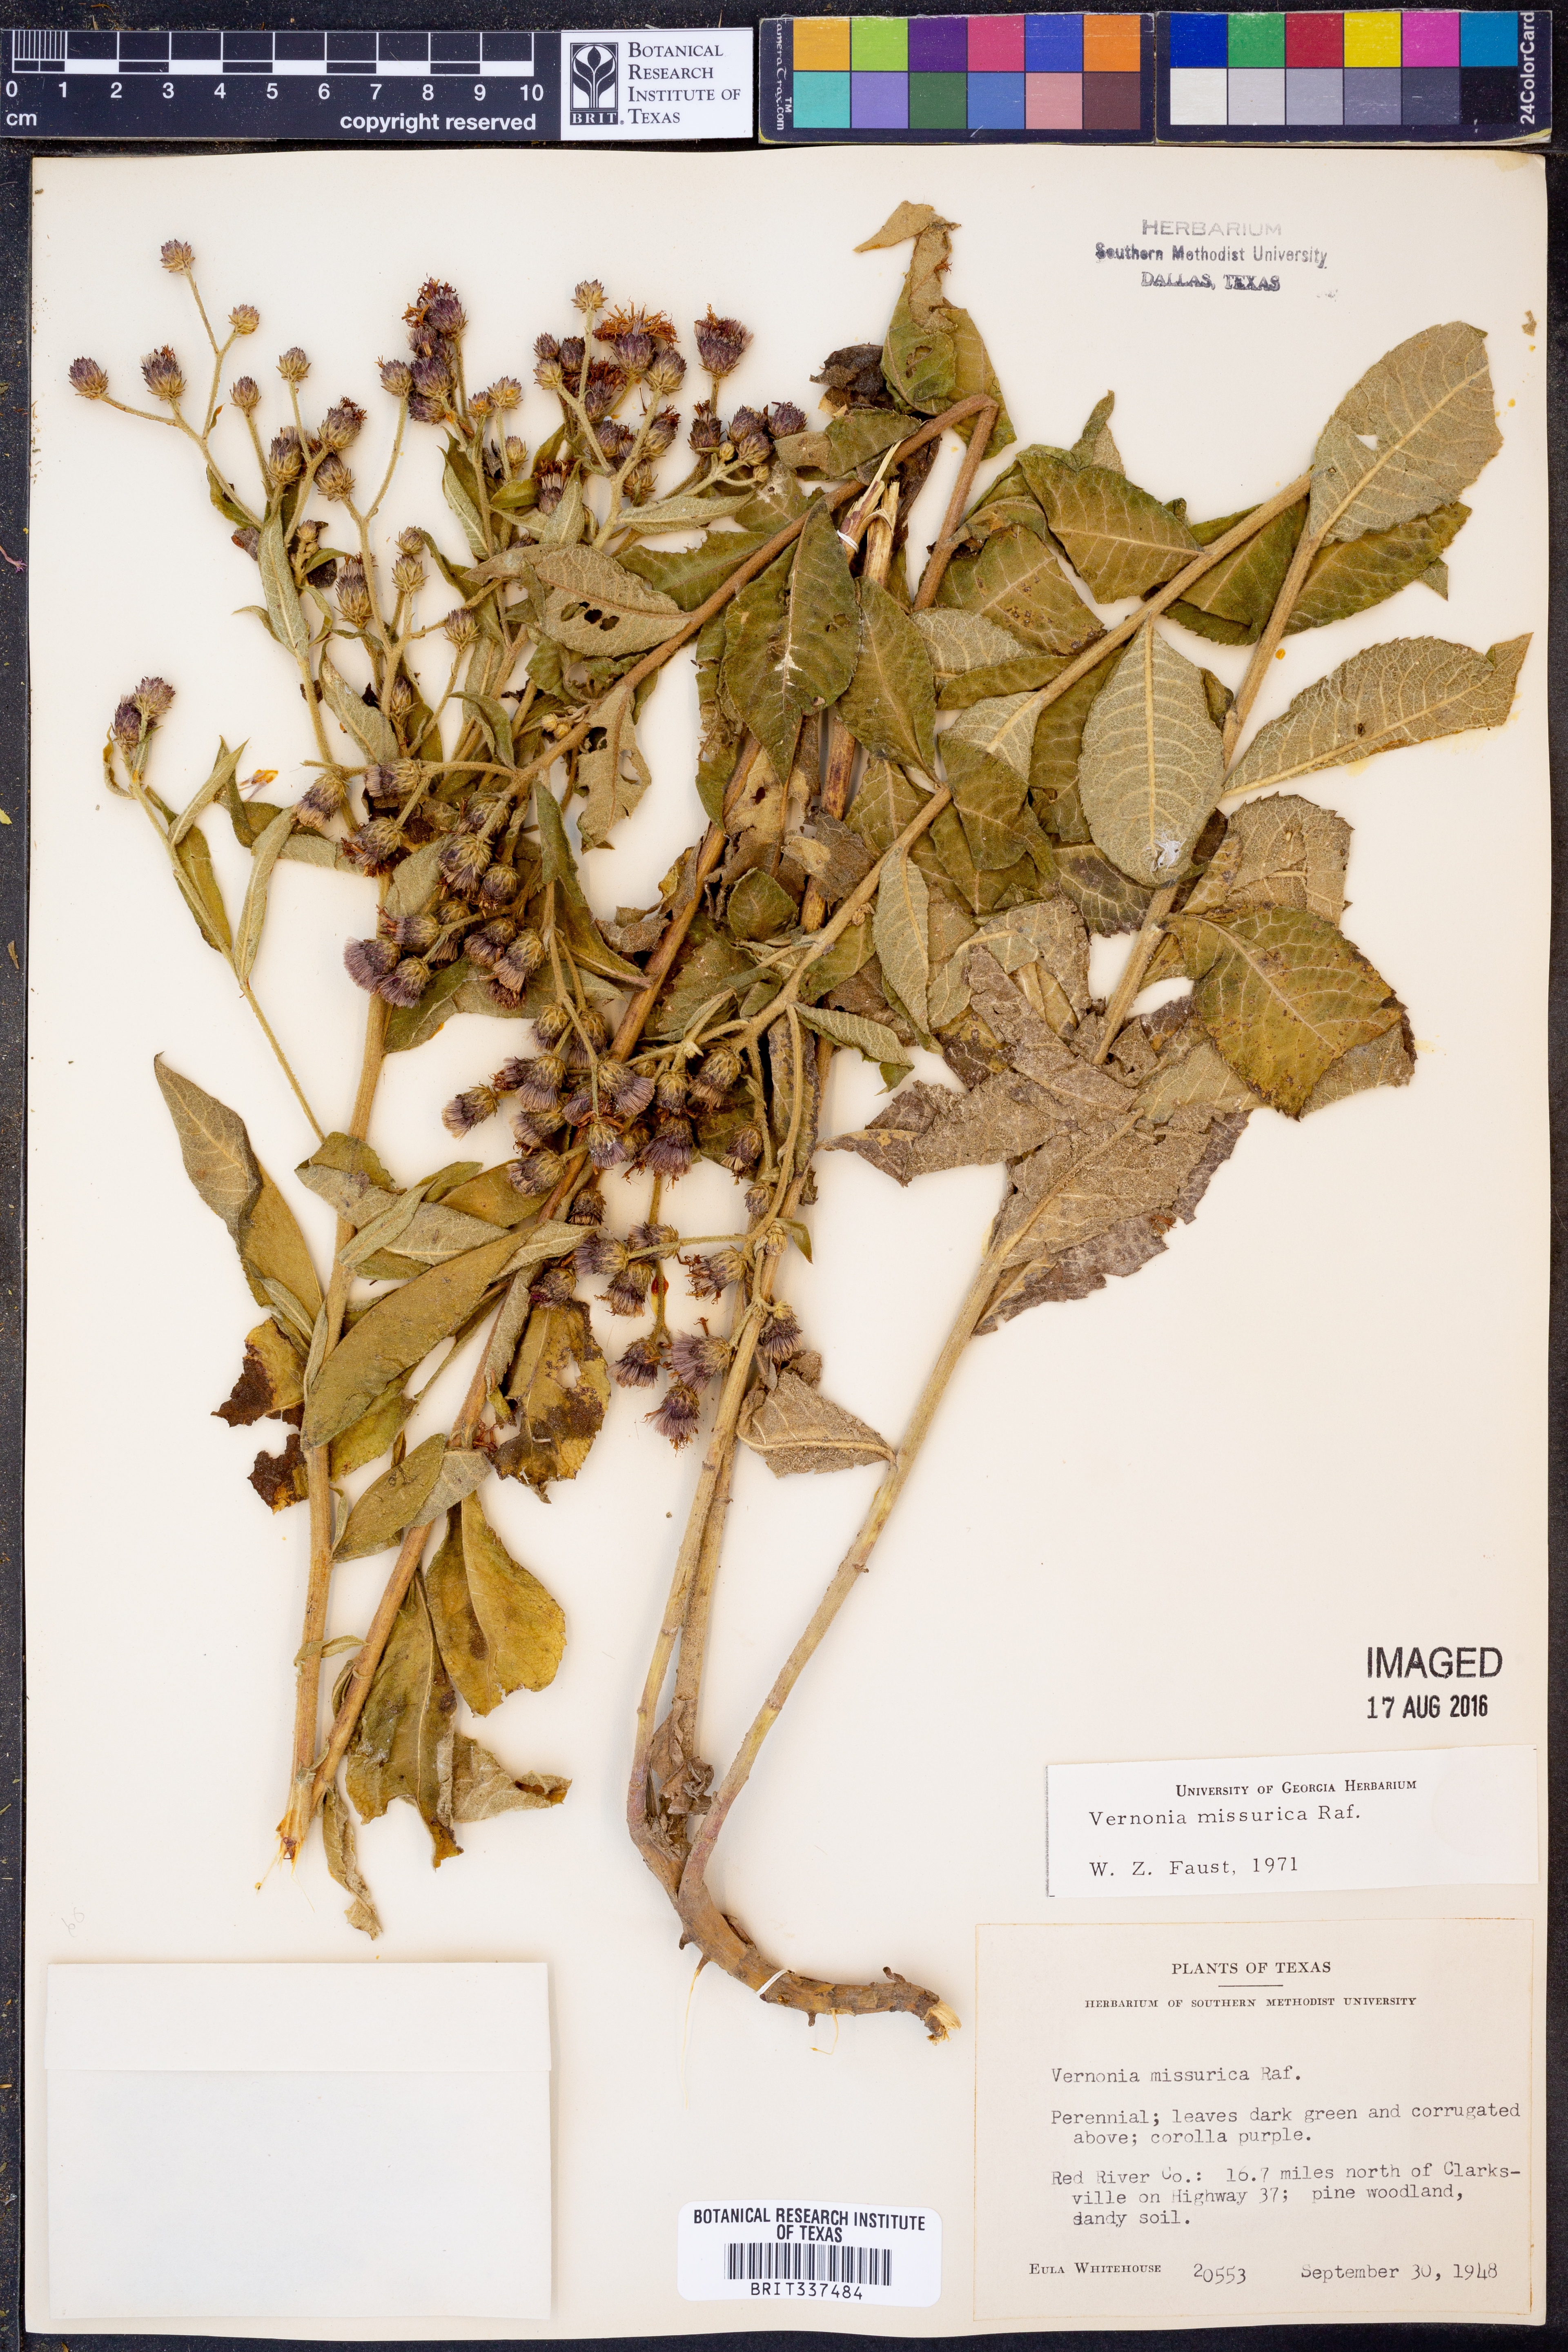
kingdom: Plantae
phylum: Tracheophyta
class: Magnoliopsida
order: Asterales
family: Asteraceae
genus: Vernonia
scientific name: Vernonia missurica
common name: Missouri ironweed
